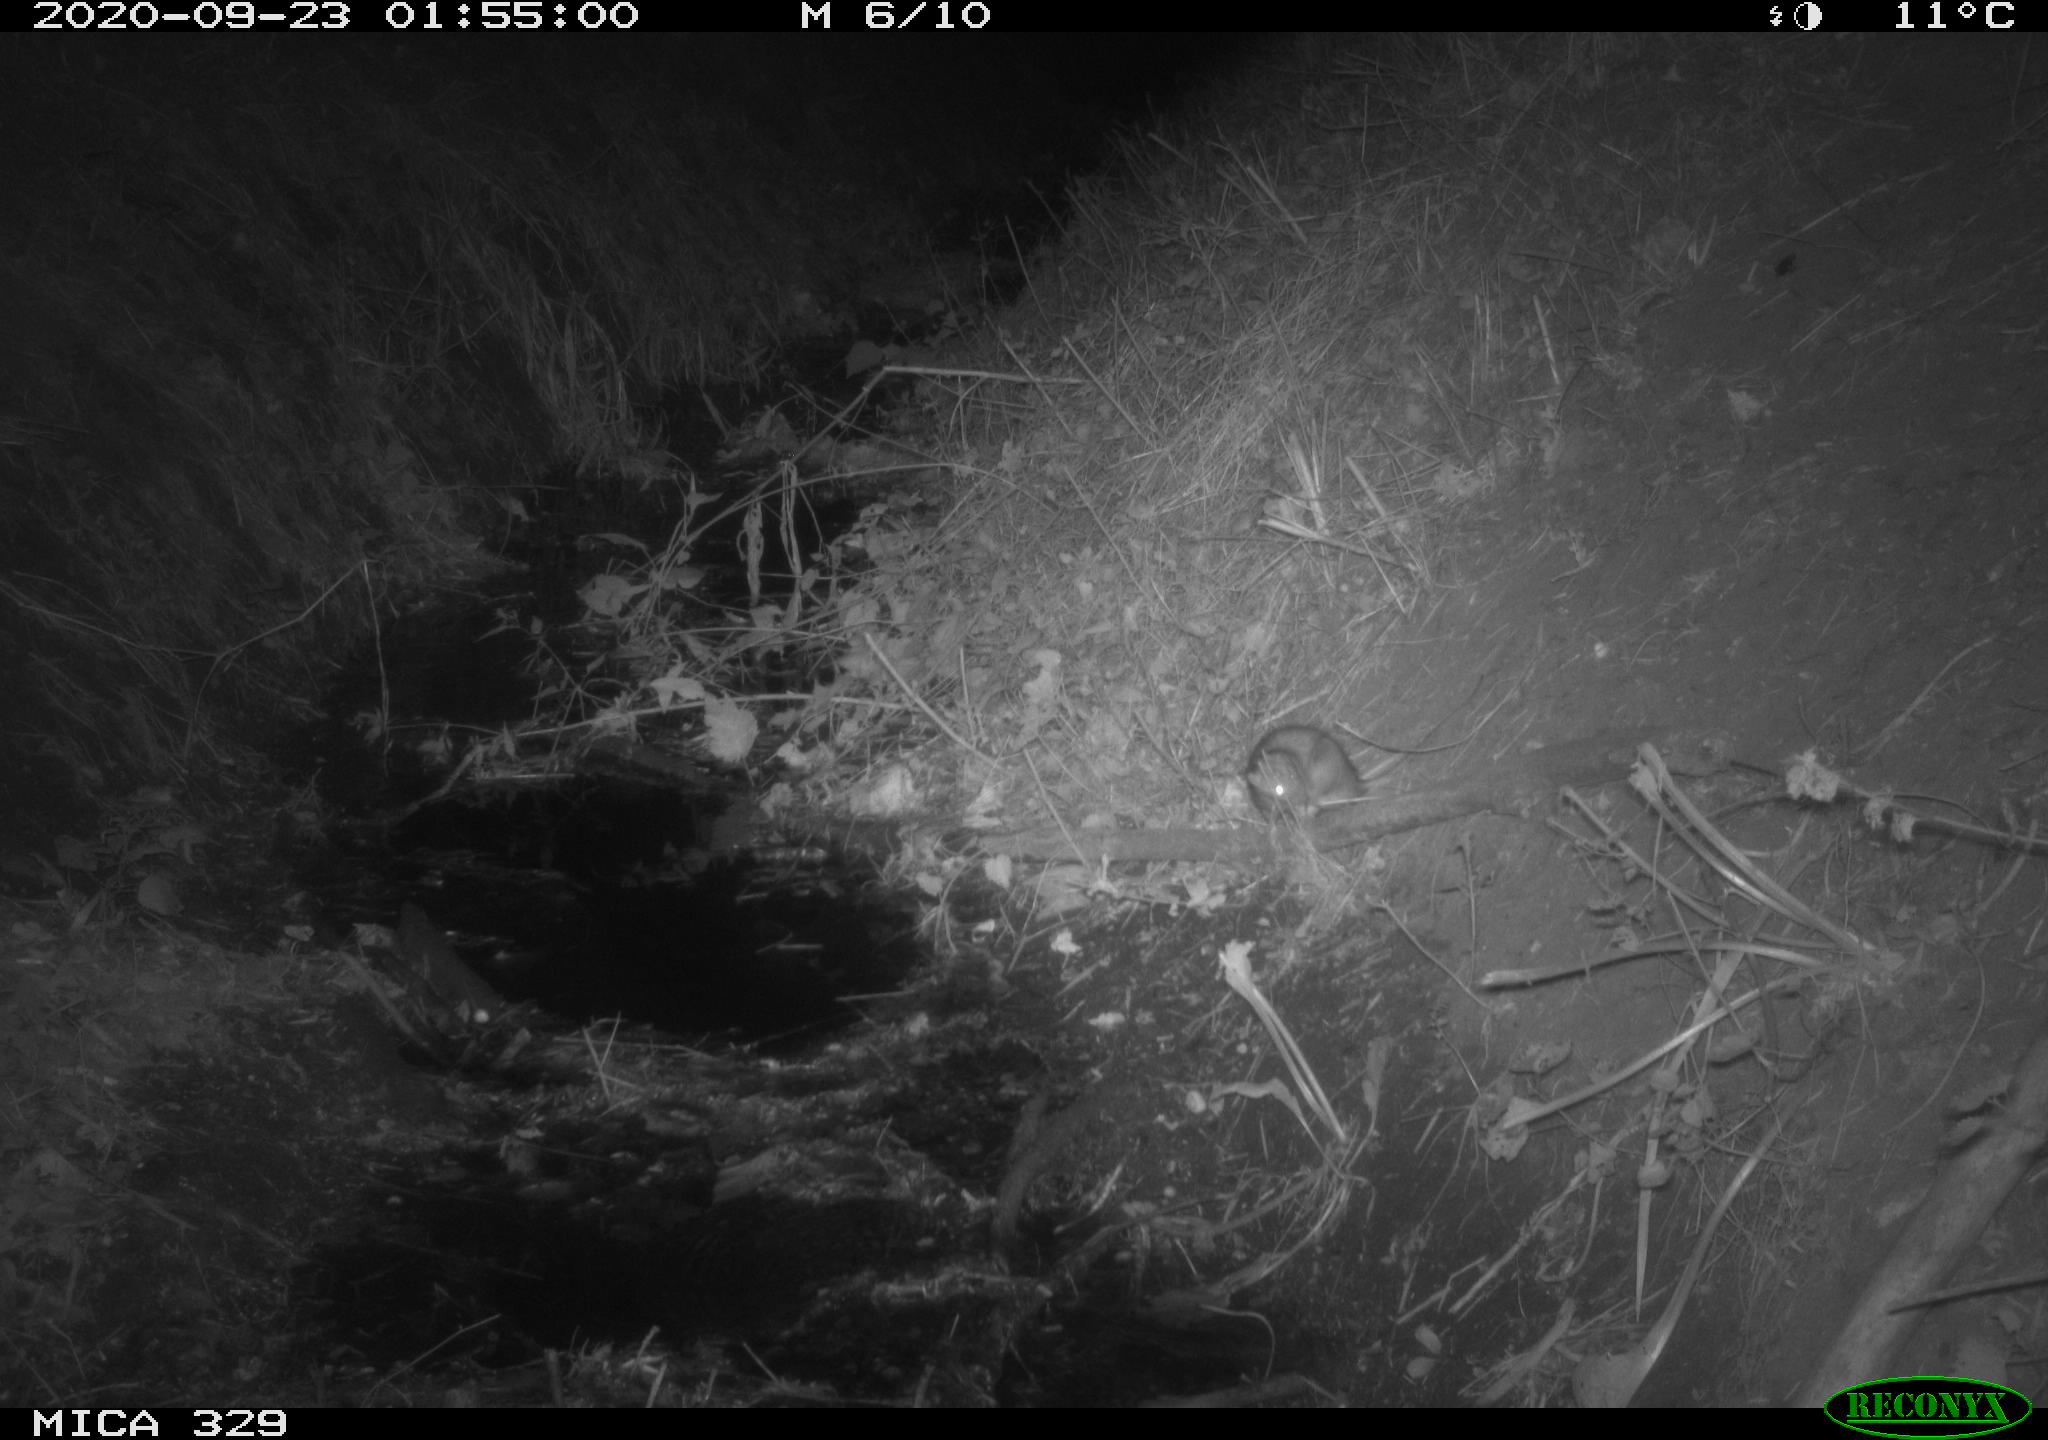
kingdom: Animalia
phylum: Chordata
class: Mammalia
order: Rodentia
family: Muridae
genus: Rattus
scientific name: Rattus norvegicus
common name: Brown rat
